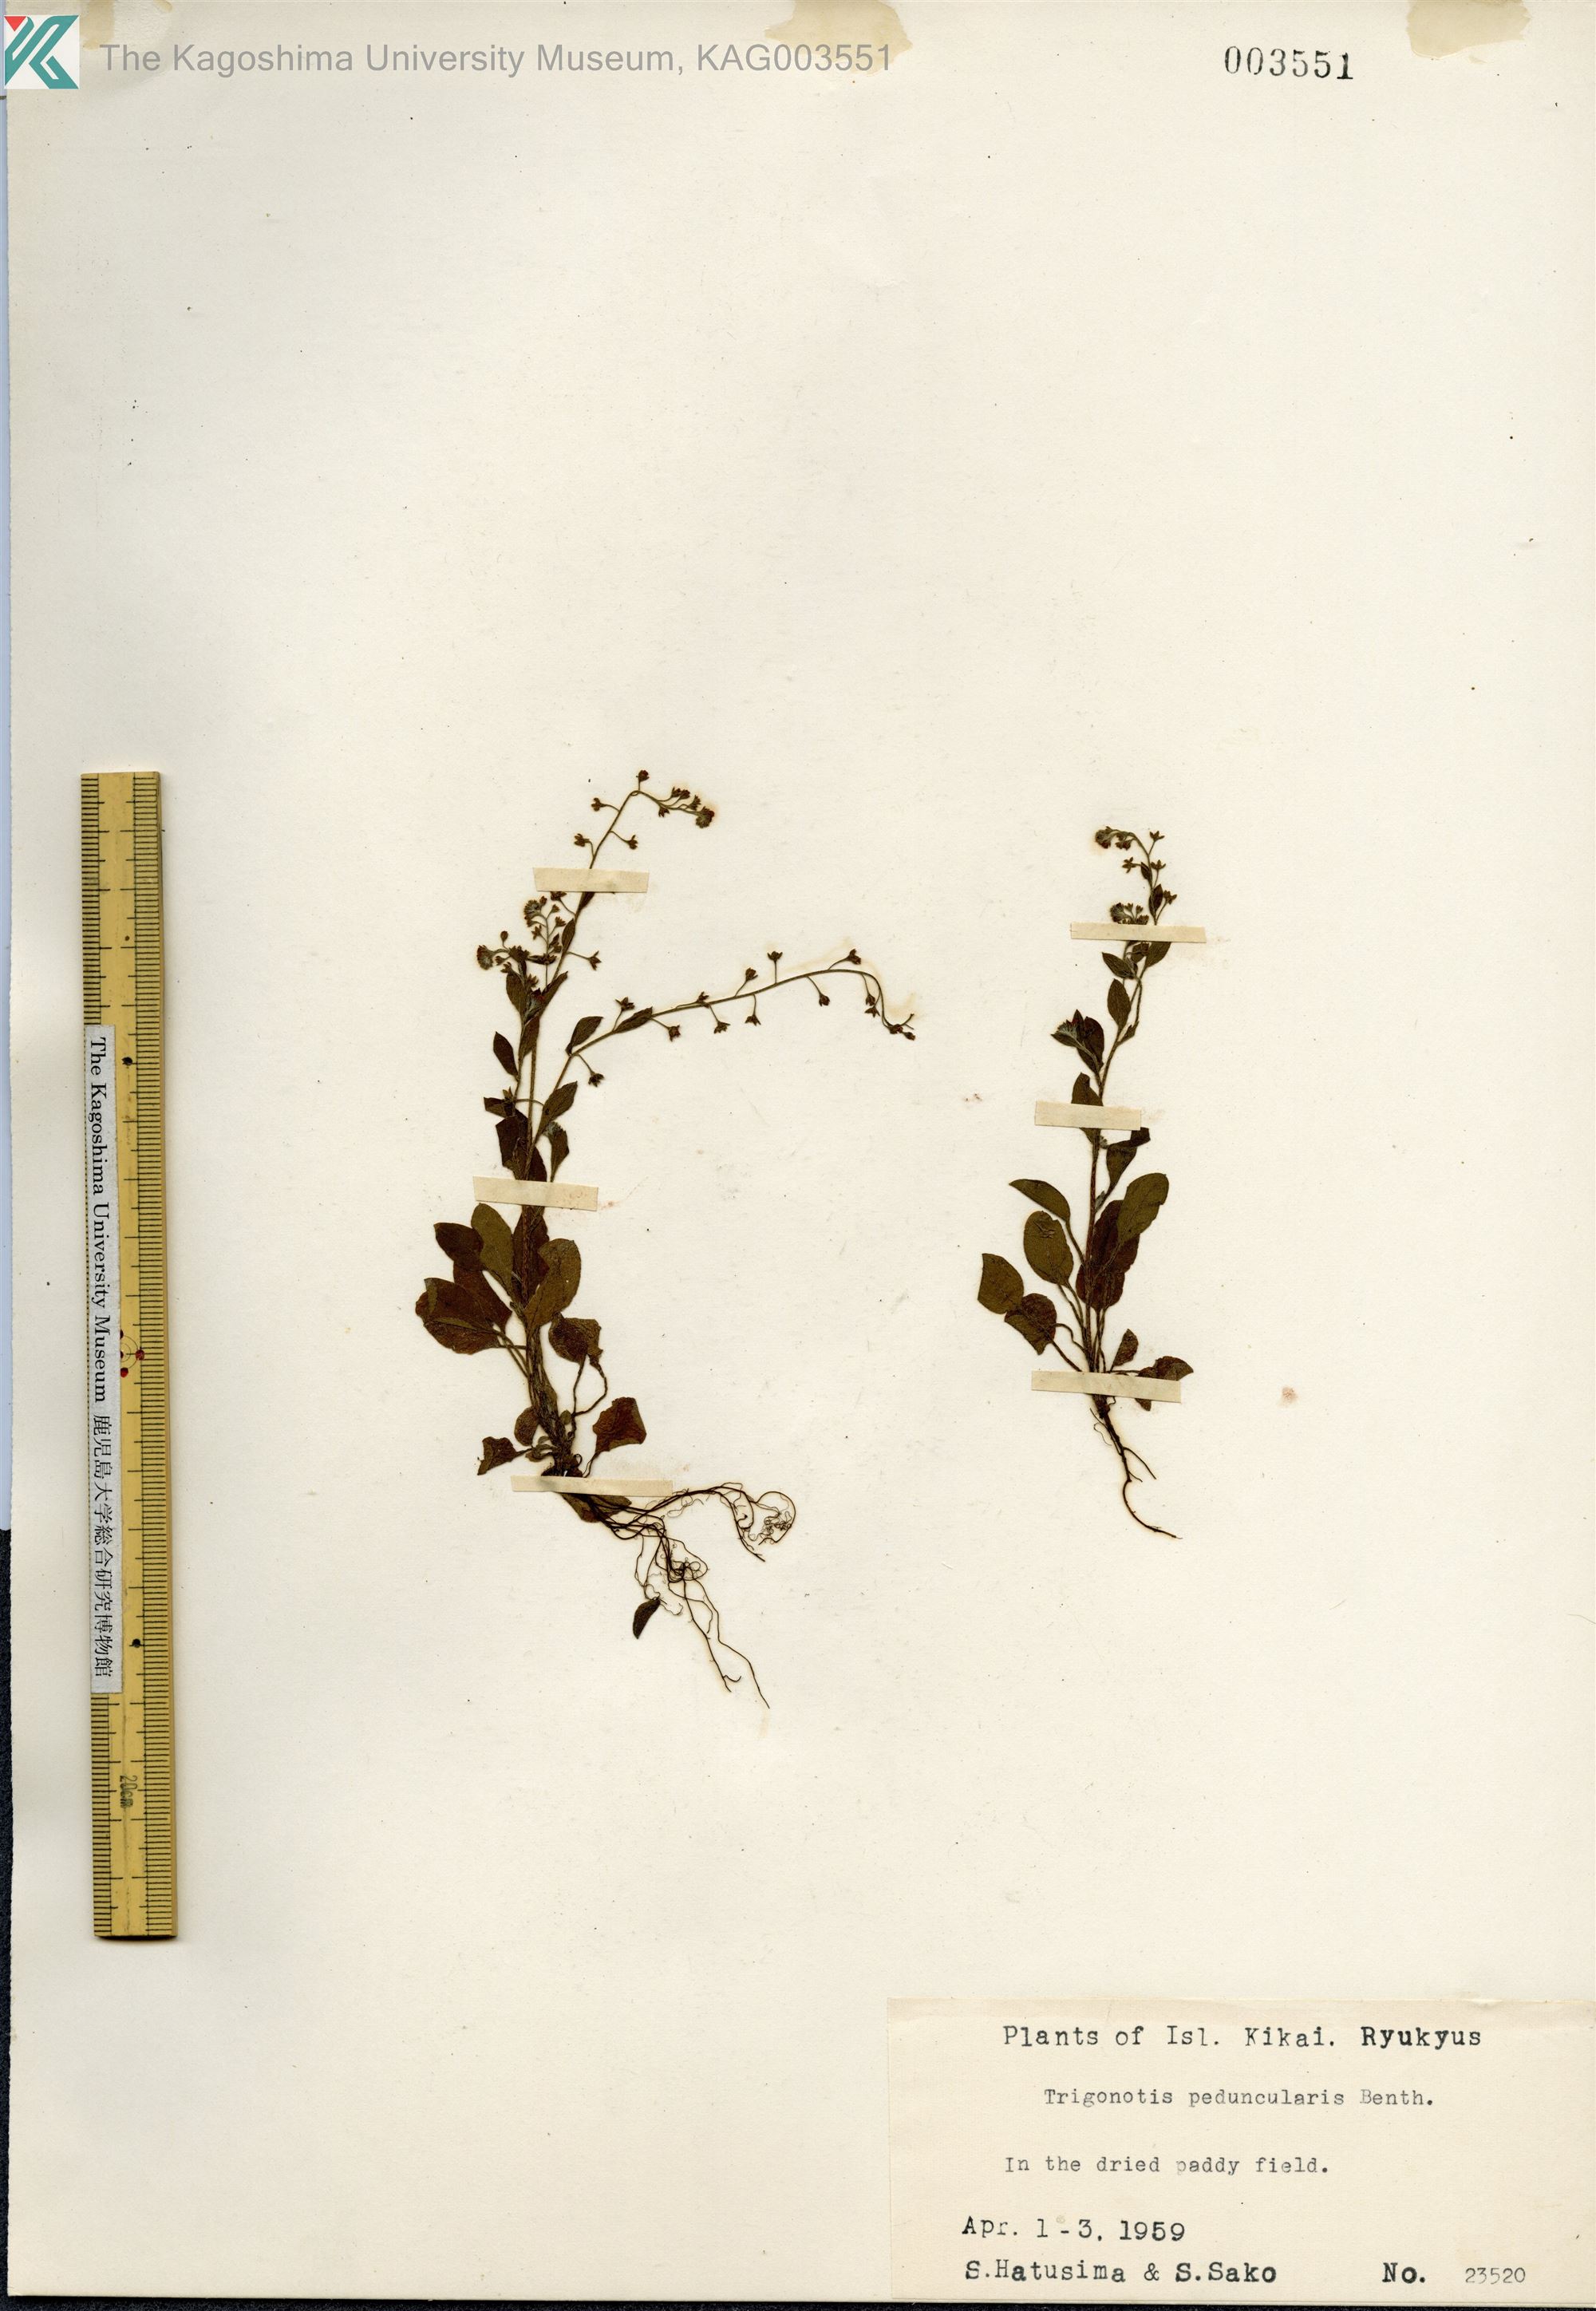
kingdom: Plantae
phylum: Tracheophyta
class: Magnoliopsida
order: Boraginales
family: Boraginaceae
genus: Trigonotis
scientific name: Trigonotis peduncularis
